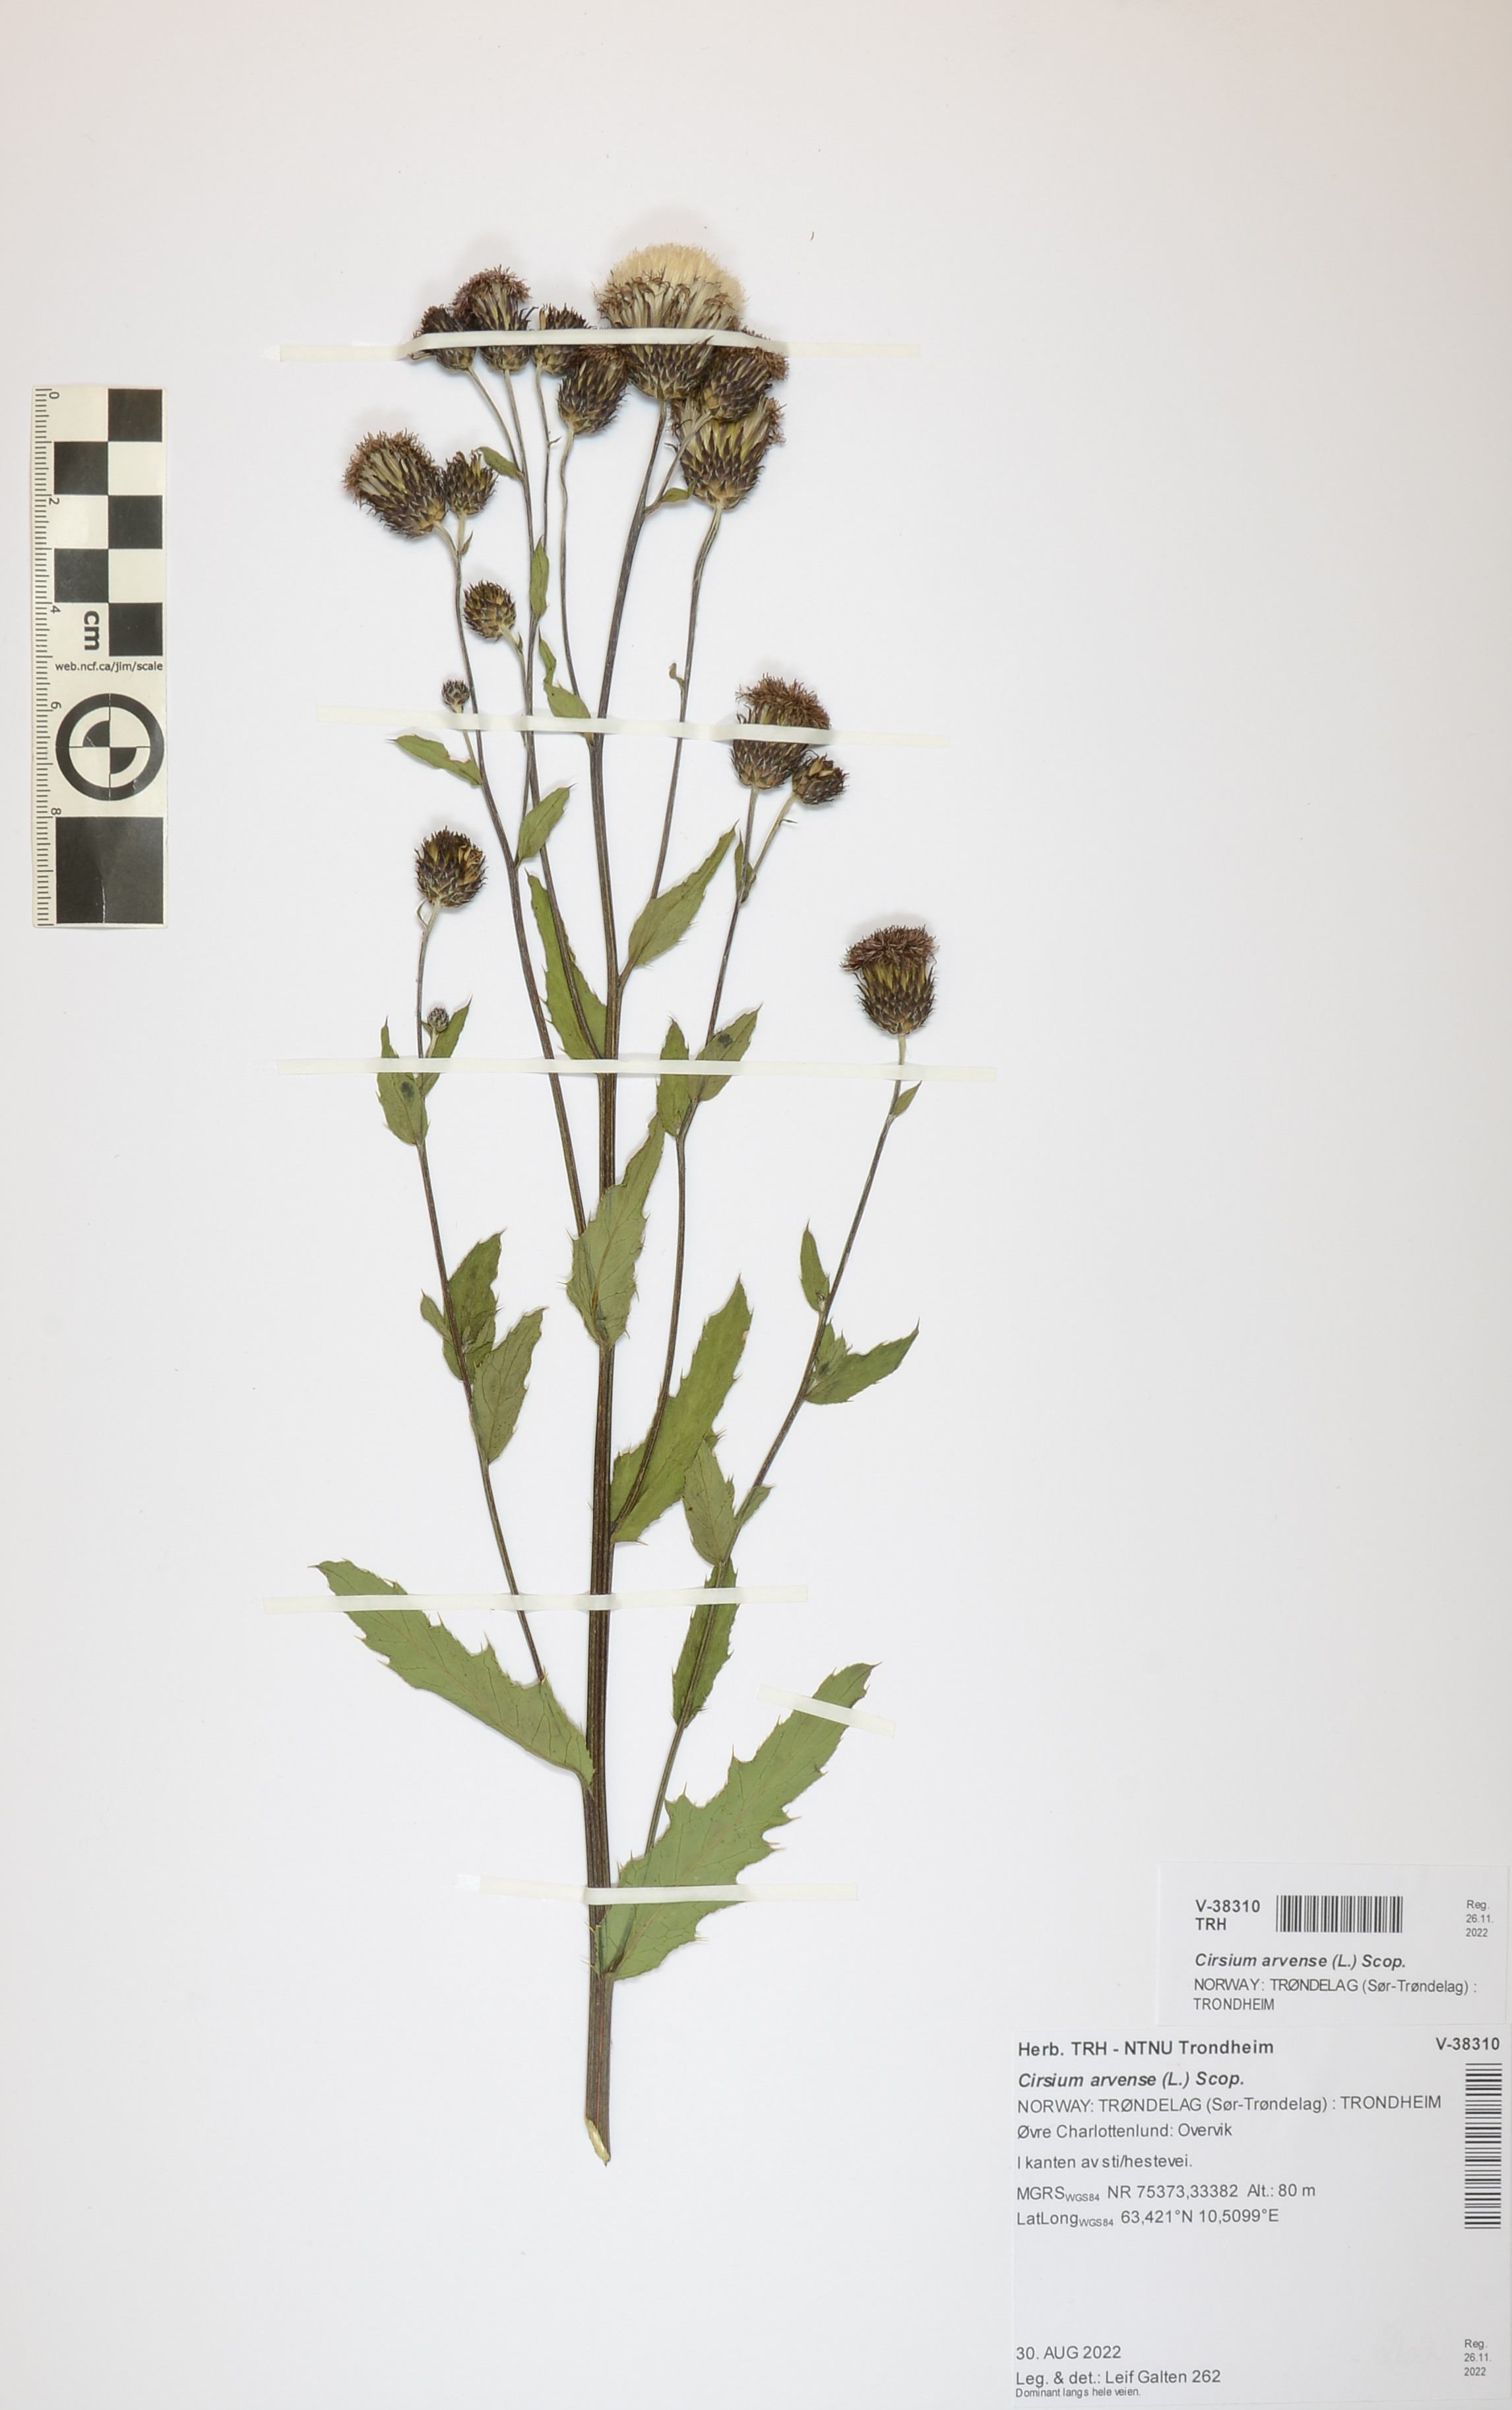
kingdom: Plantae
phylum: Tracheophyta
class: Magnoliopsida
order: Asterales
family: Asteraceae
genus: Cirsium
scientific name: Cirsium arvense
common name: Creeping thistle
